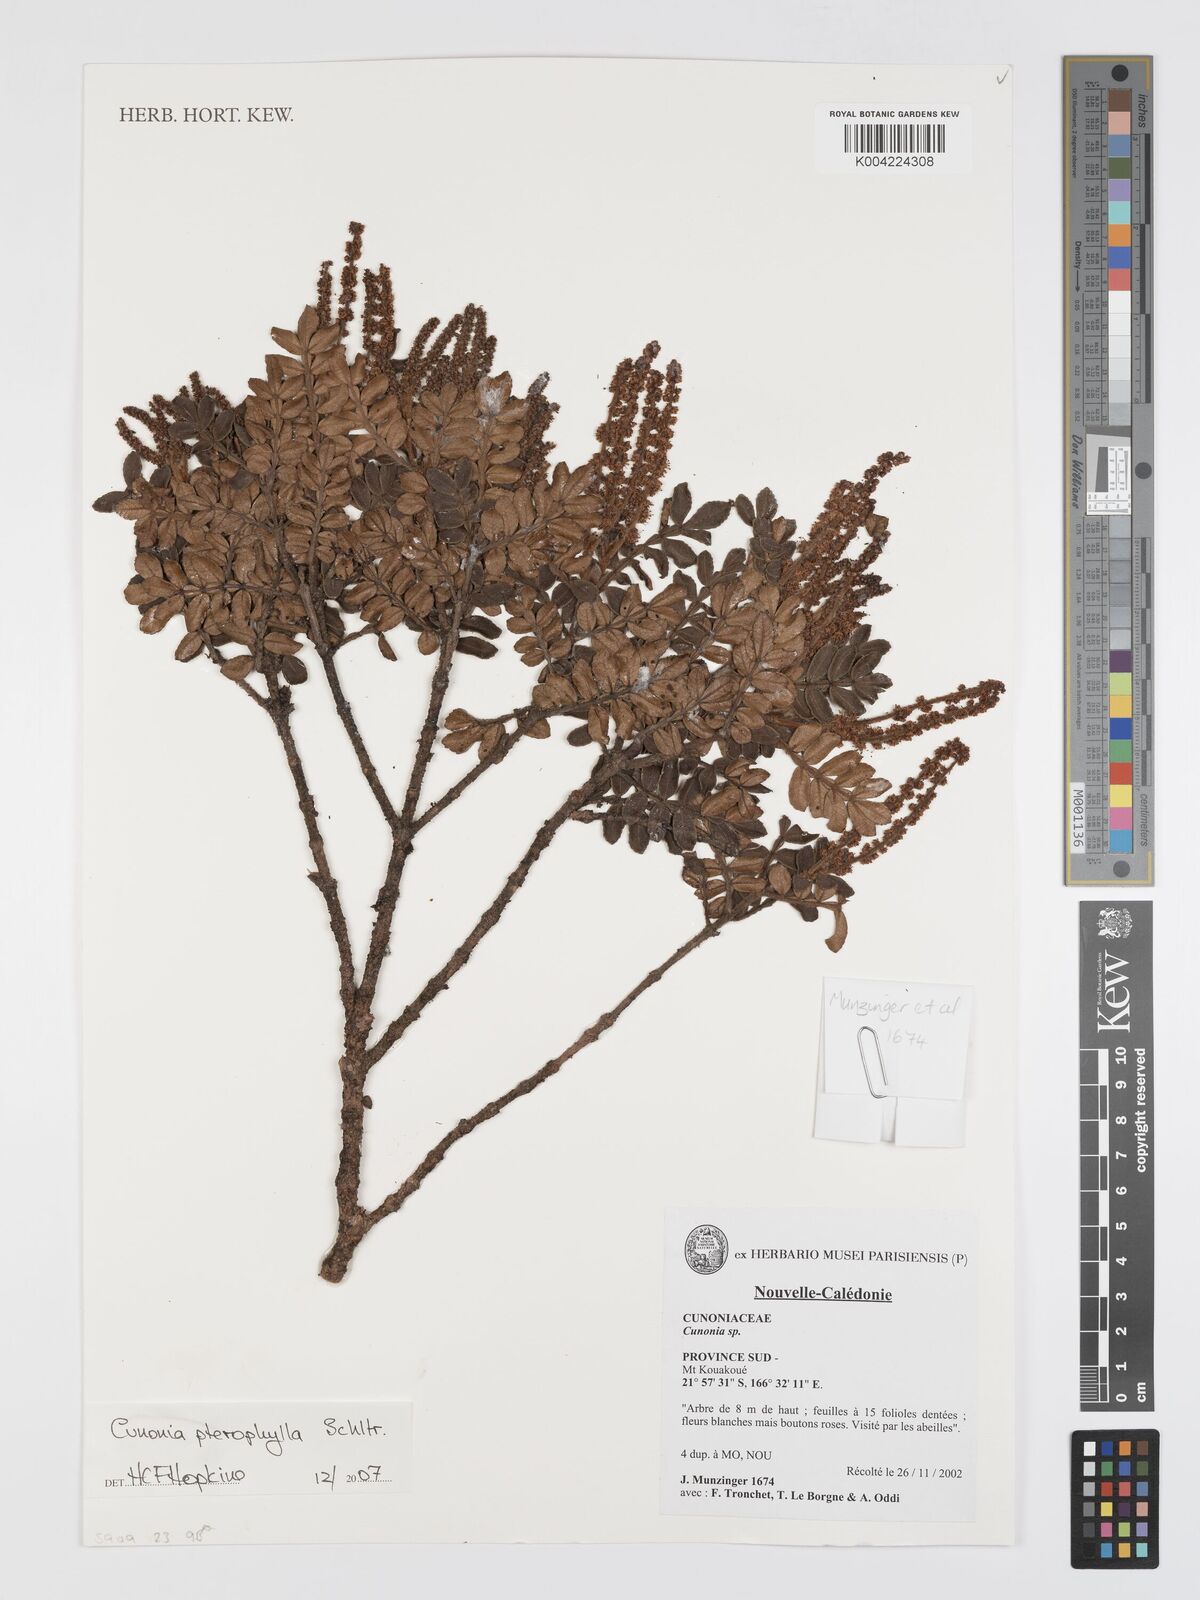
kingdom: Plantae
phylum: Tracheophyta
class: Magnoliopsida
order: Oxalidales
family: Cunoniaceae
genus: Cunonia
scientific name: Cunonia pterophylla
